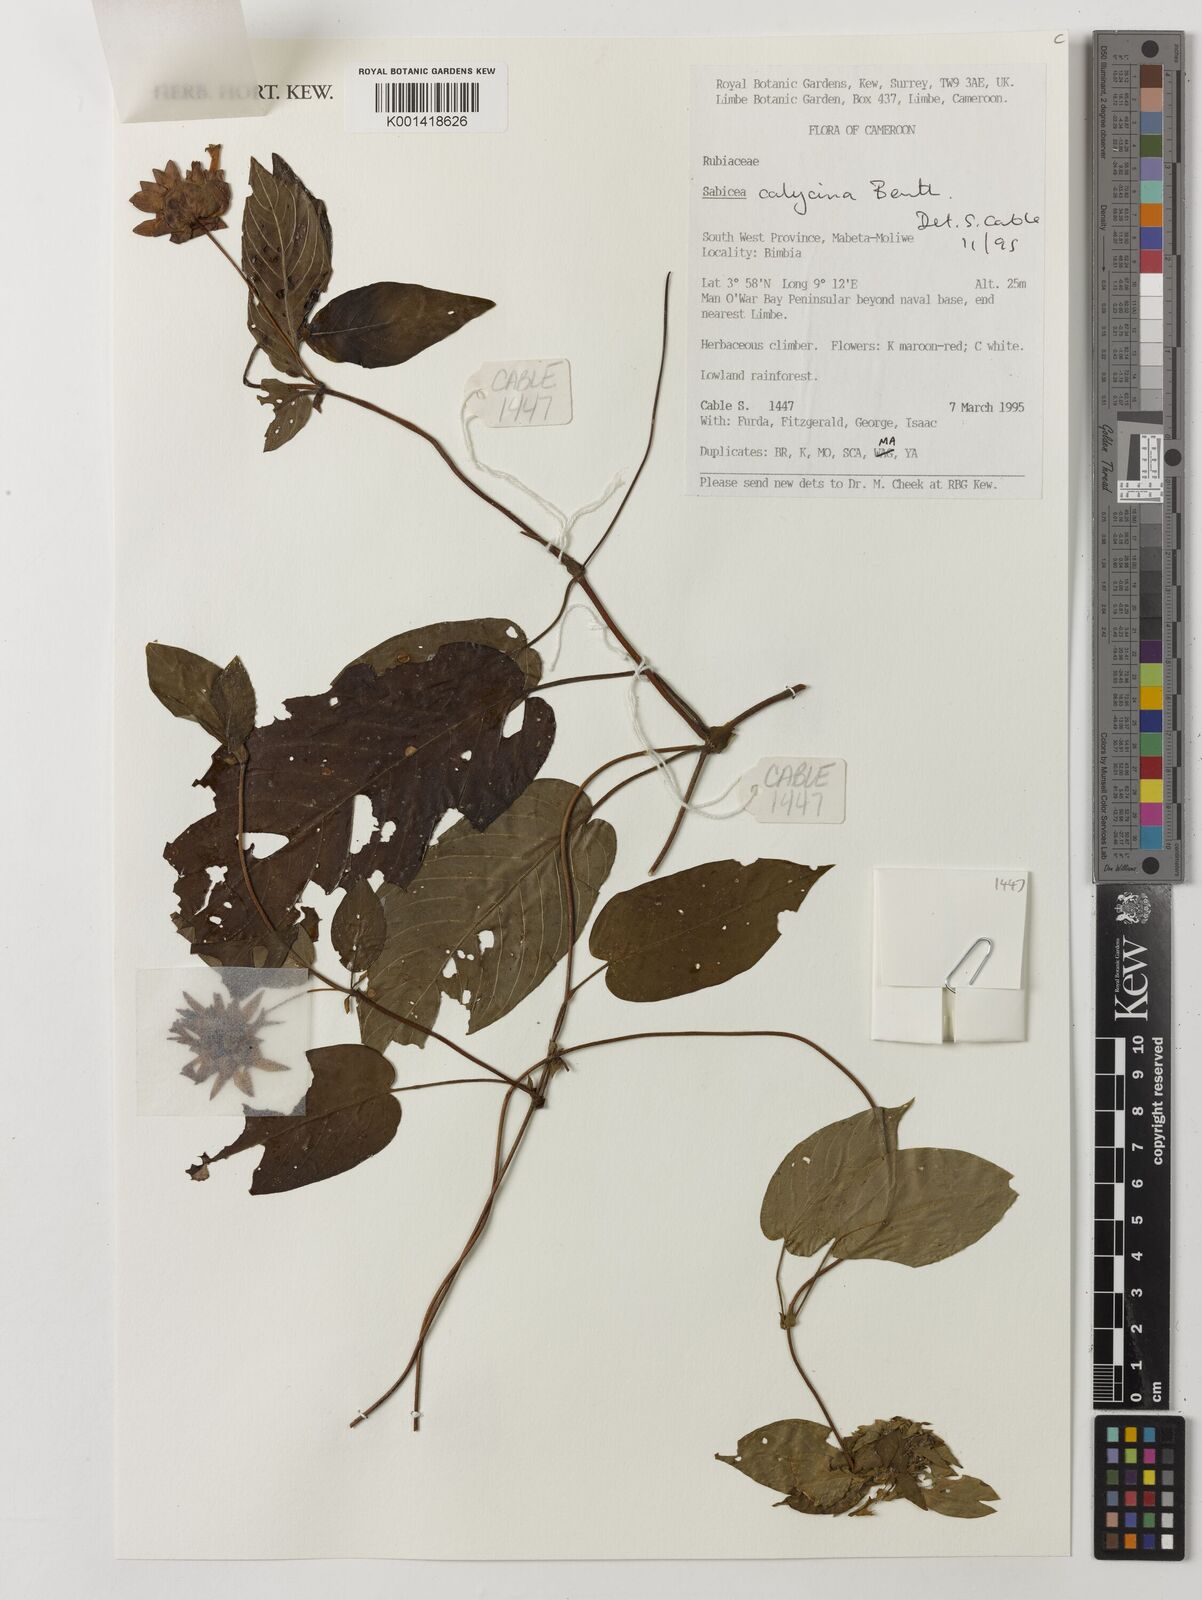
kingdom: Plantae
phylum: Tracheophyta
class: Magnoliopsida
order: Gentianales
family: Rubiaceae
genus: Sabicea
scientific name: Sabicea calycina
